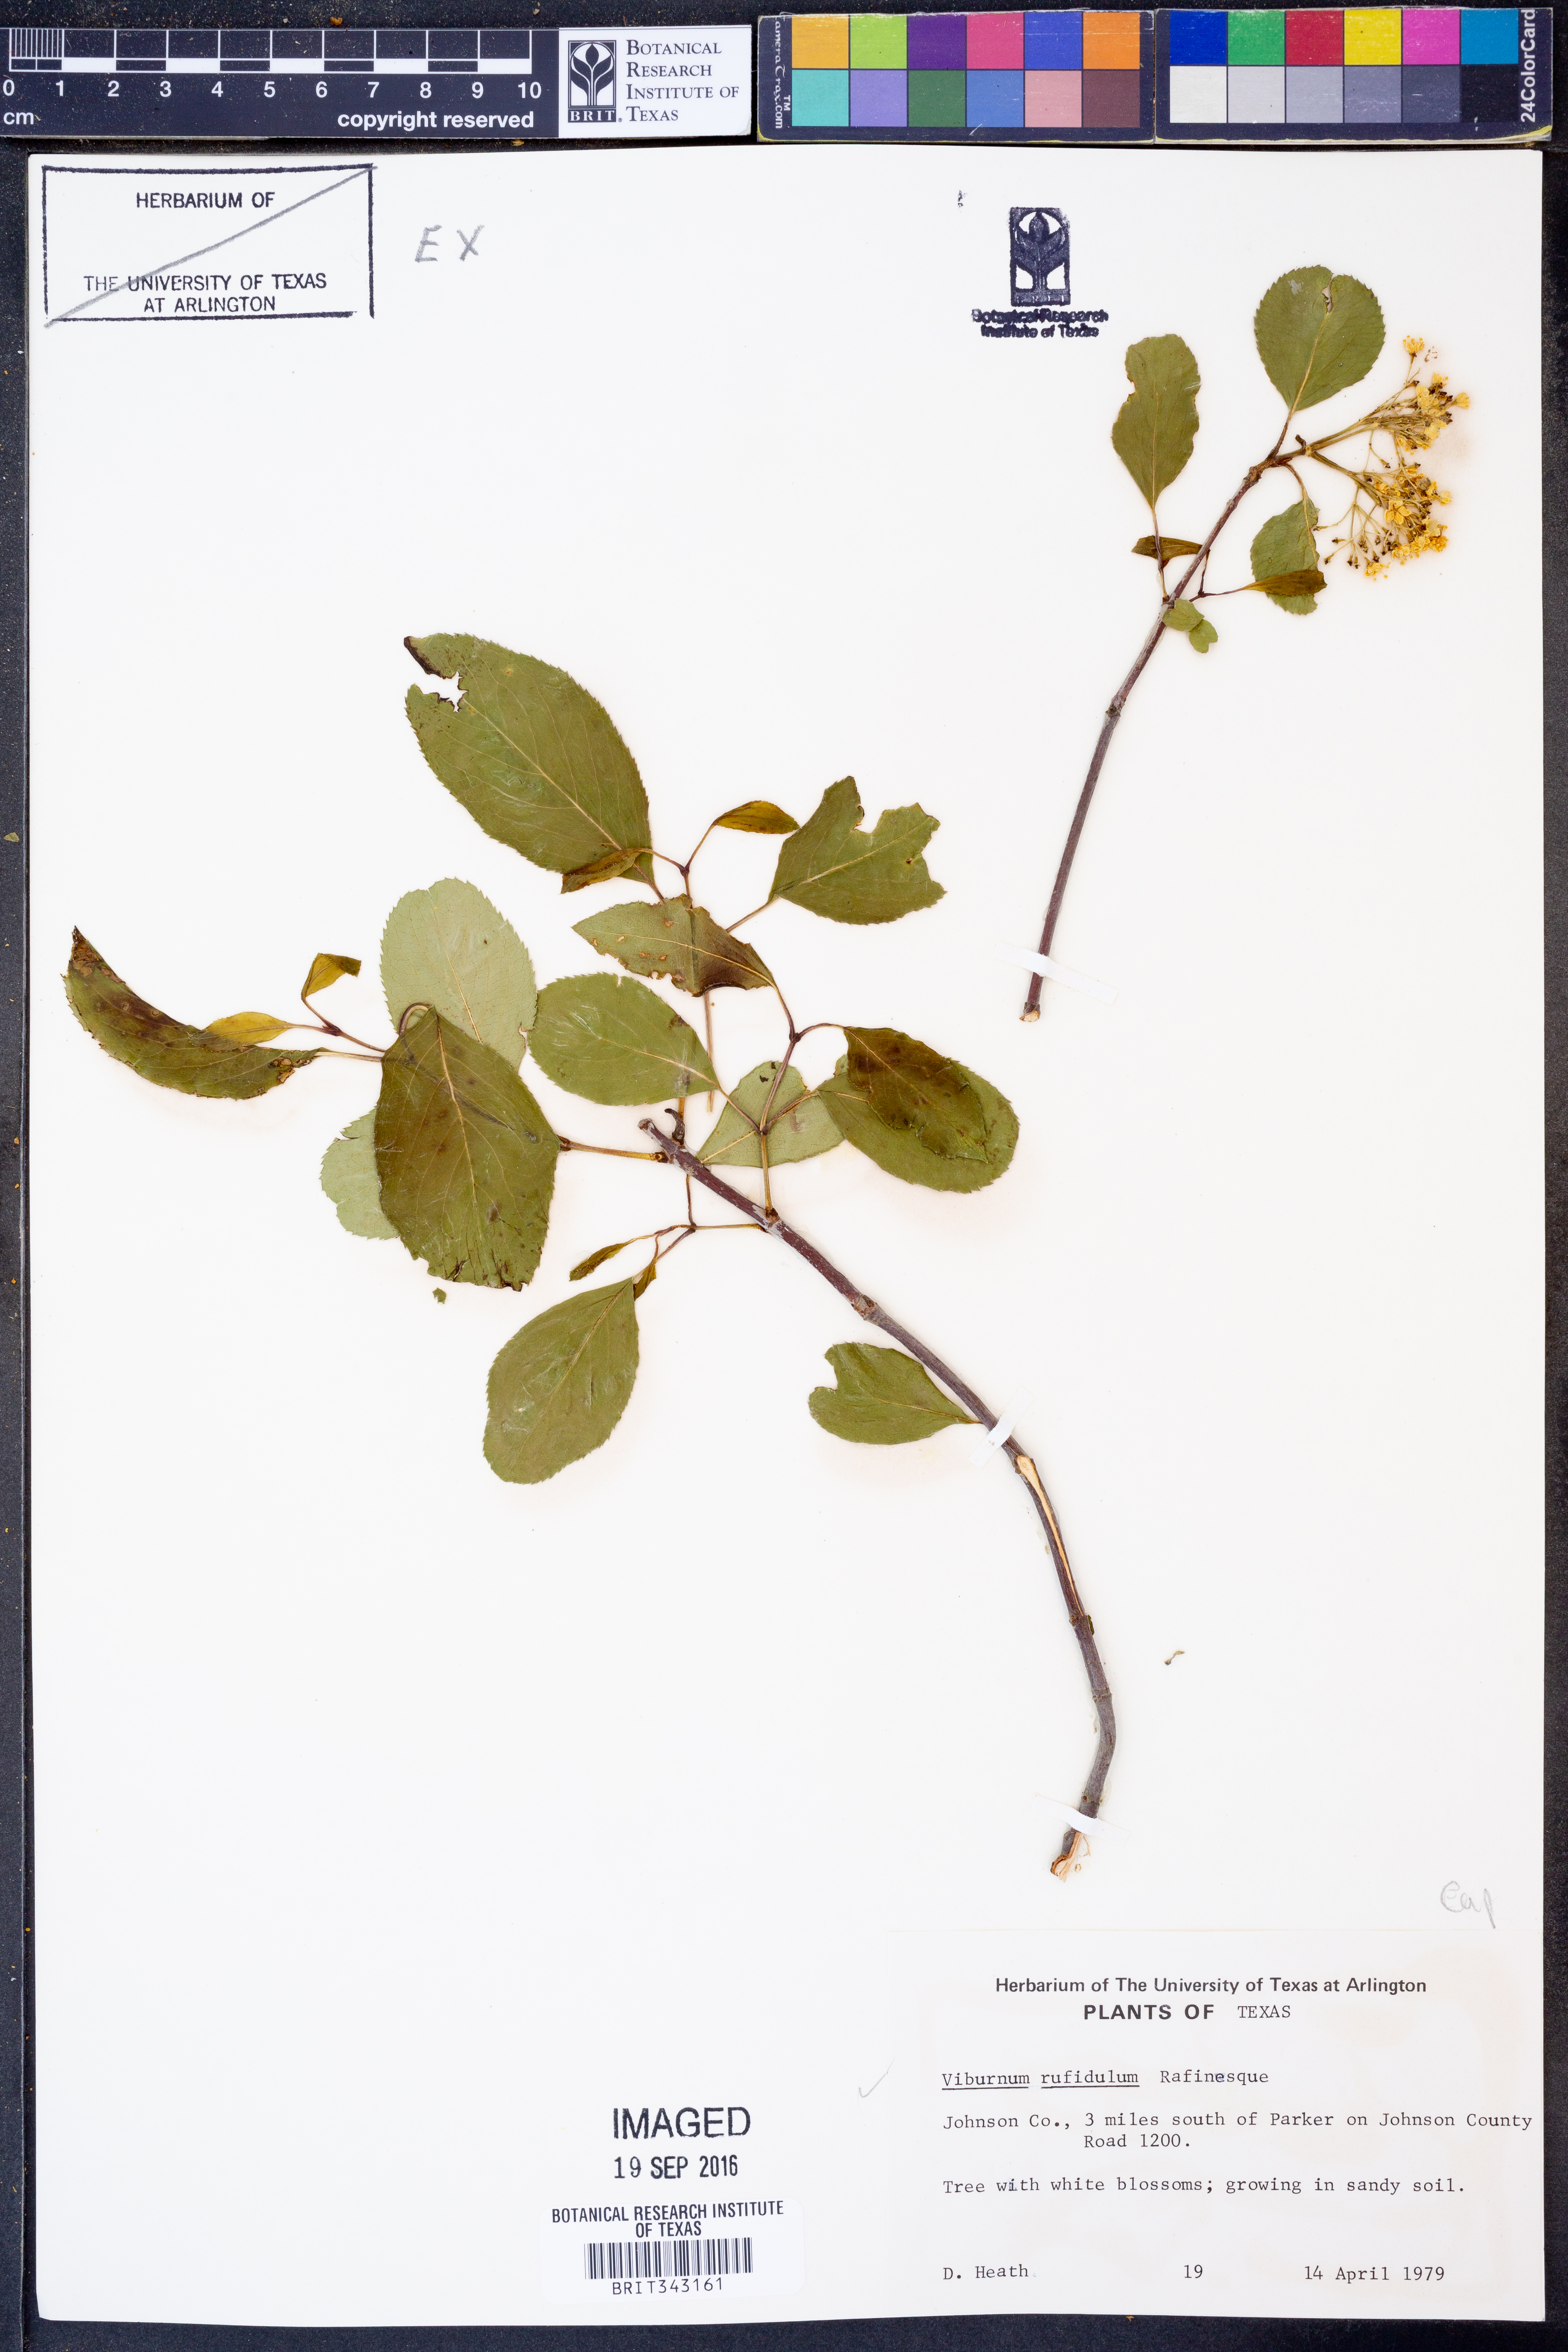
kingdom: Plantae
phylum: Tracheophyta
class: Magnoliopsida
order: Dipsacales
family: Viburnaceae
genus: Viburnum
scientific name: Viburnum rufidulum
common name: Blue haw
